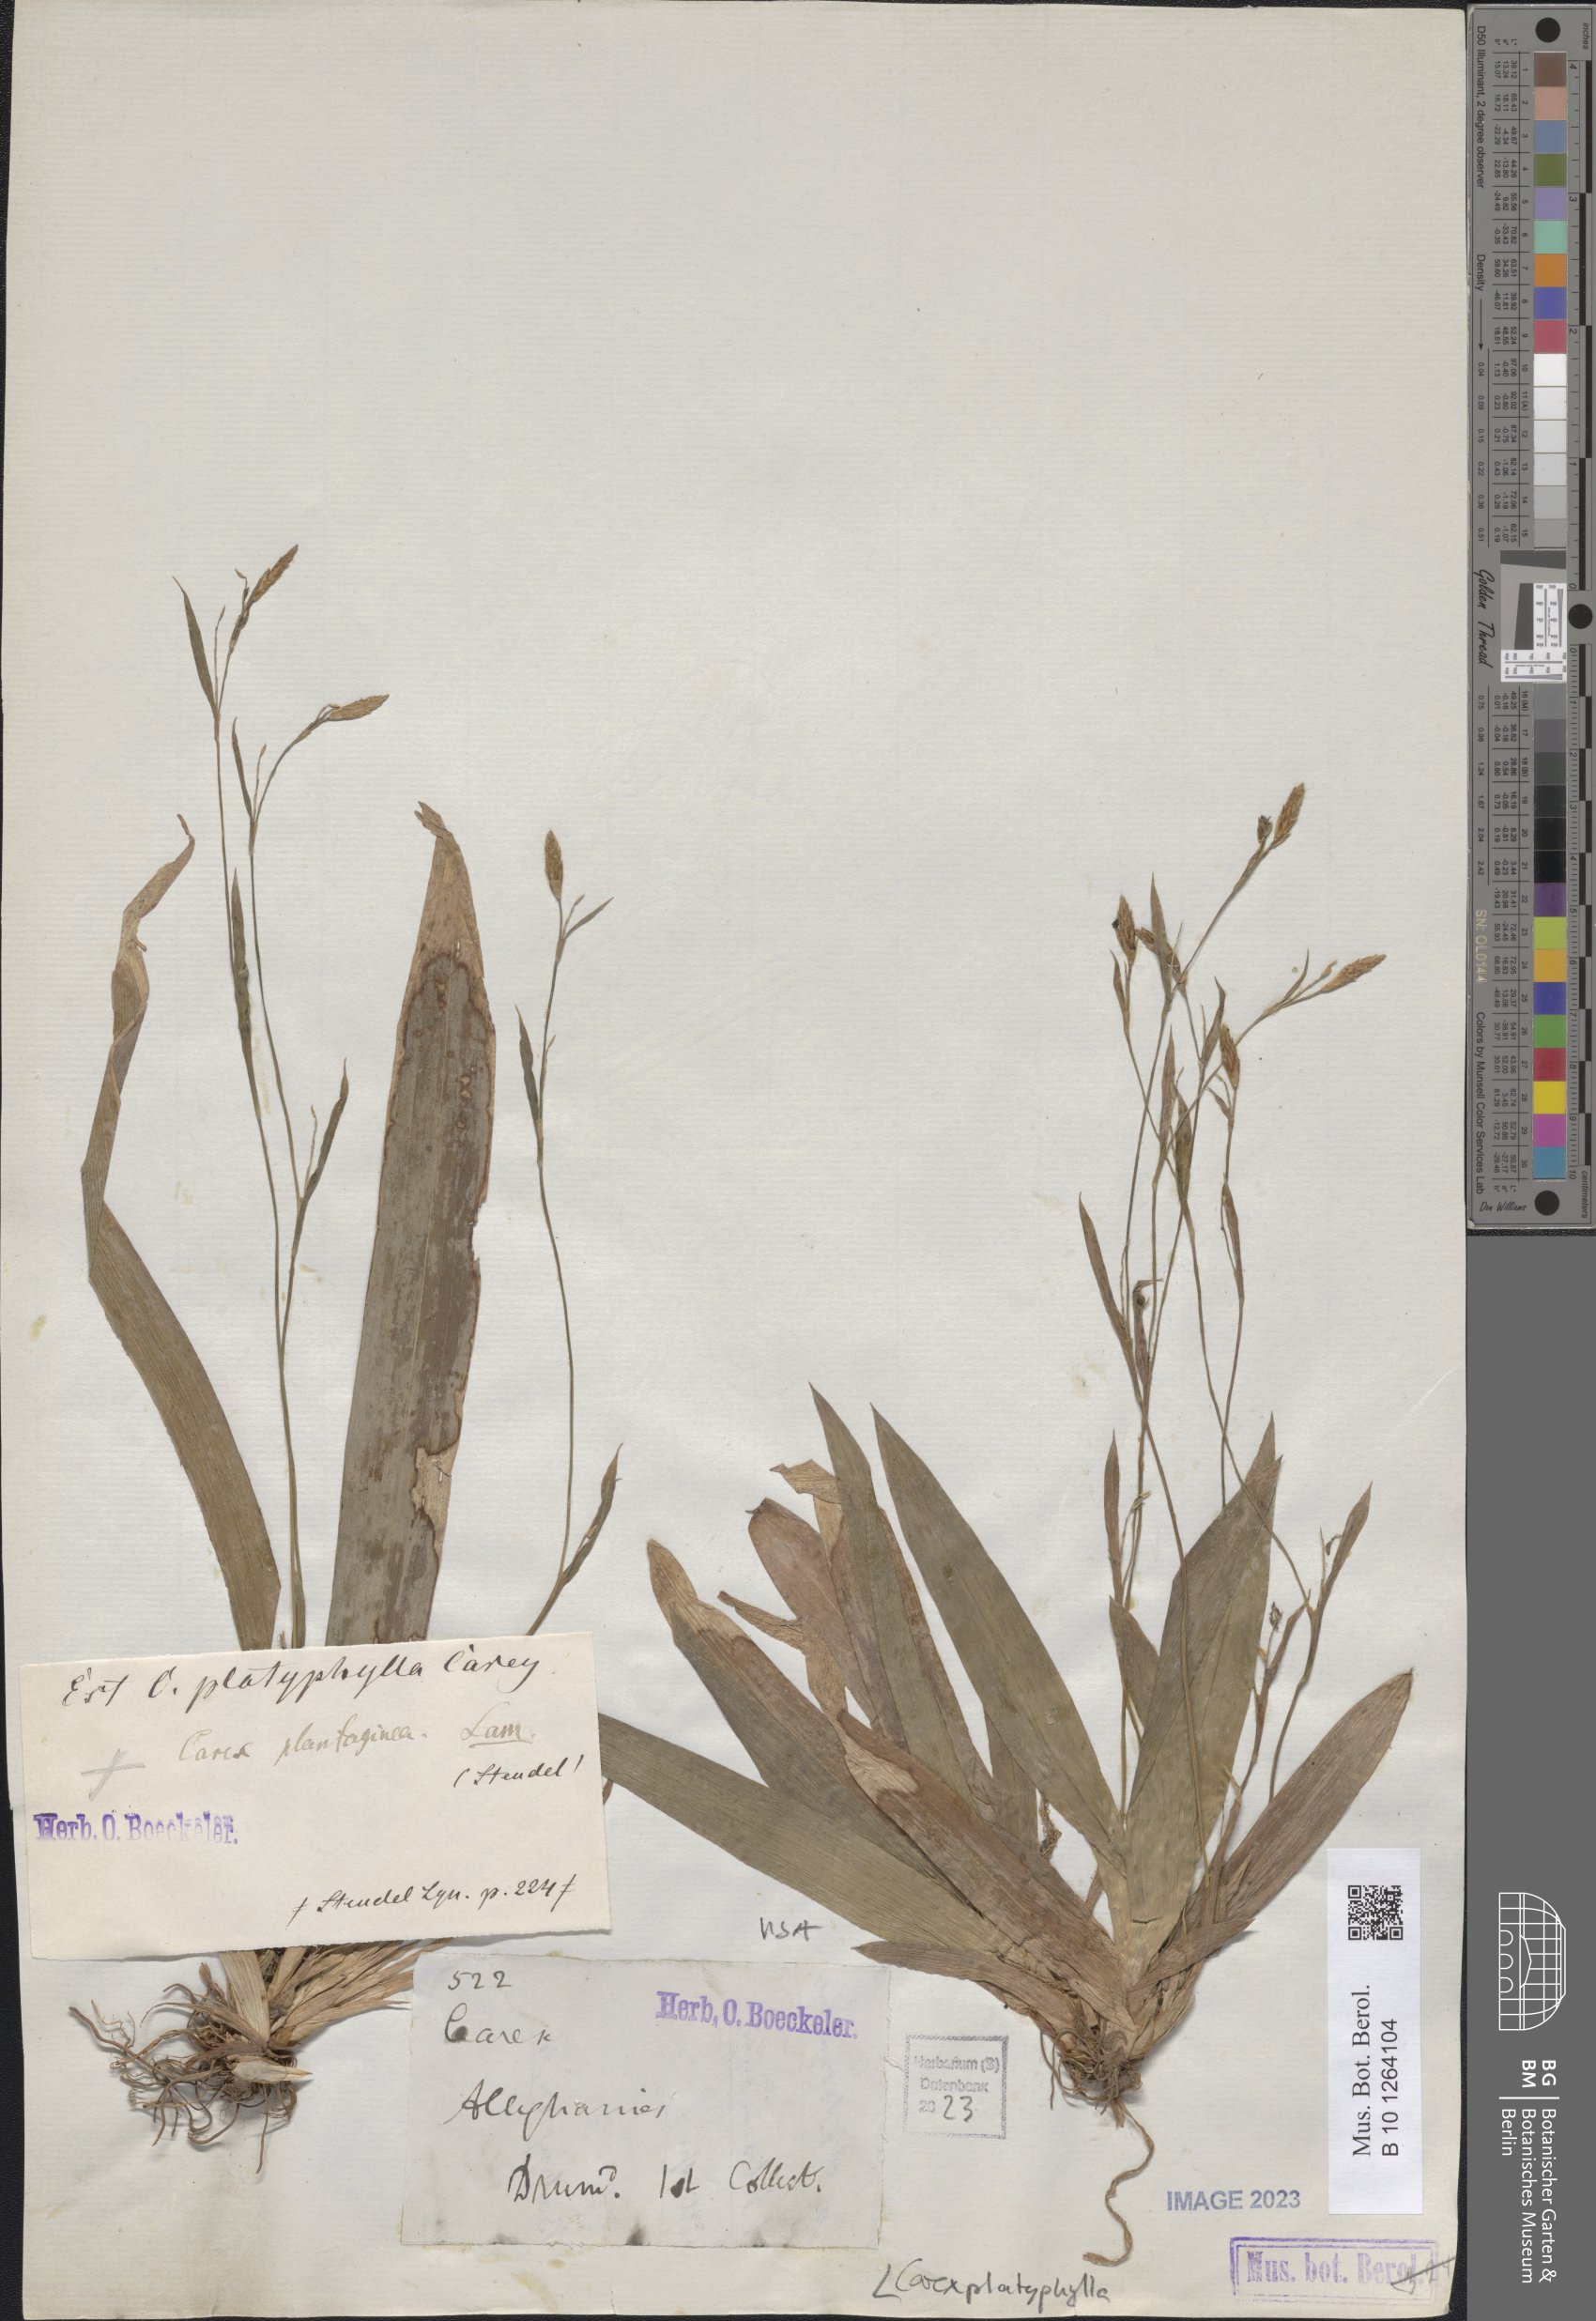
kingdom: Plantae
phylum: Tracheophyta
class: Liliopsida
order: Poales
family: Cyperaceae
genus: Carex
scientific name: Carex platyphylla
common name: Broad-leaved sedge
